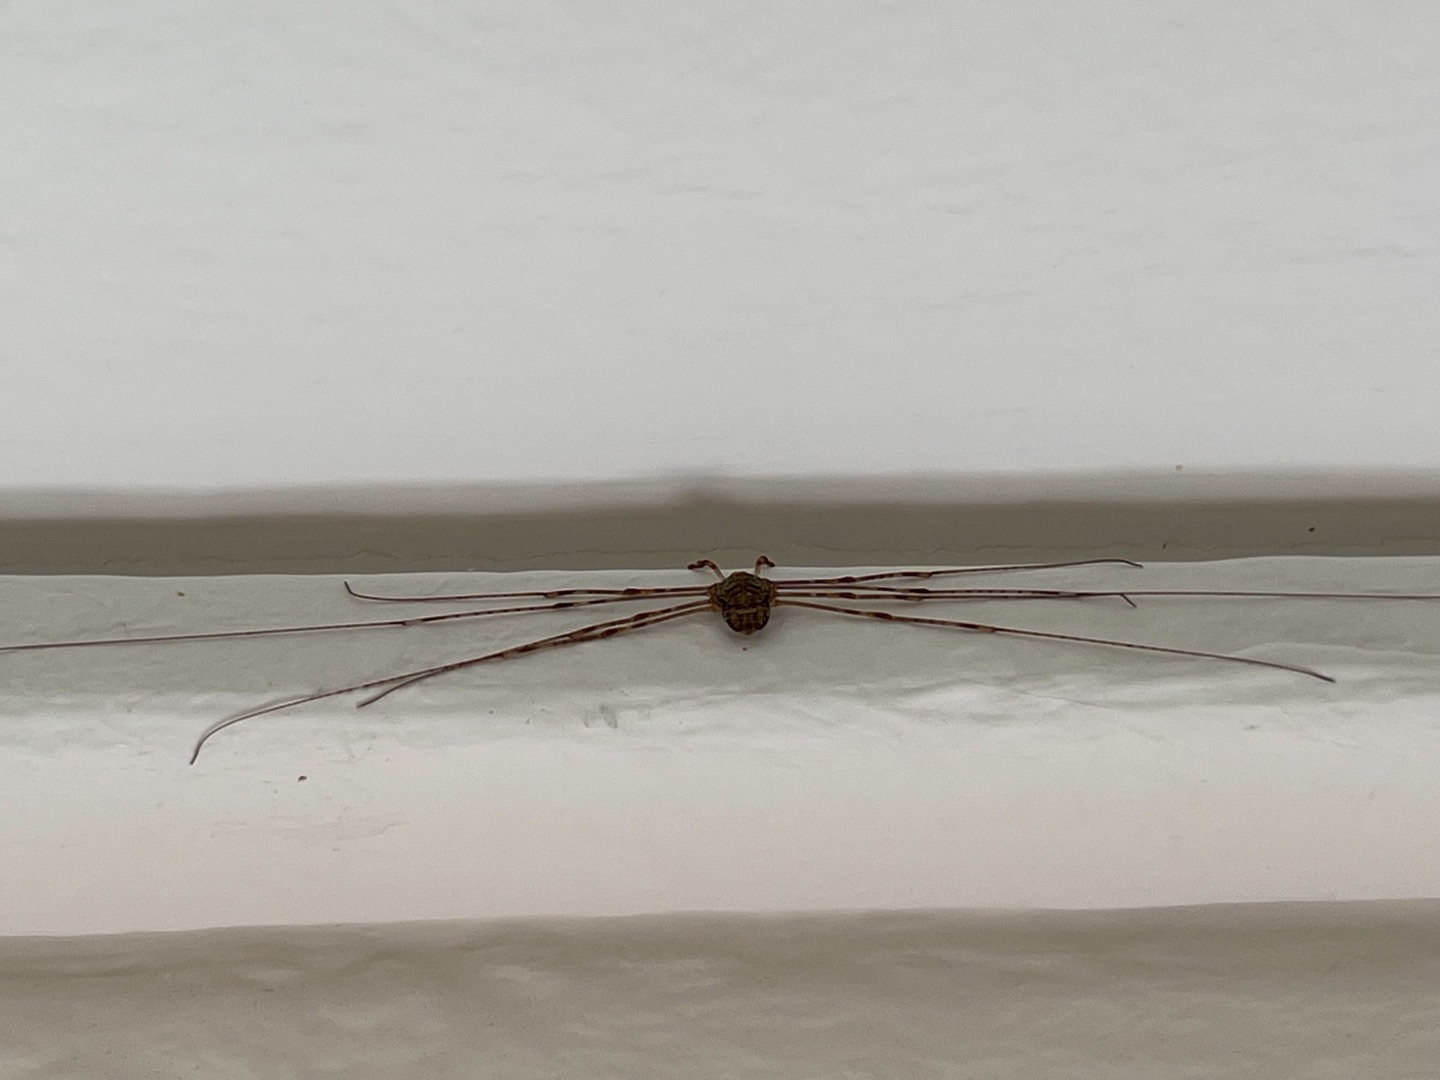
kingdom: Animalia
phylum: Arthropoda
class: Arachnida
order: Opiliones
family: Phalangiidae
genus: Dicranopalpus
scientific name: Dicranopalpus ramosus
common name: Gaffelmejer
